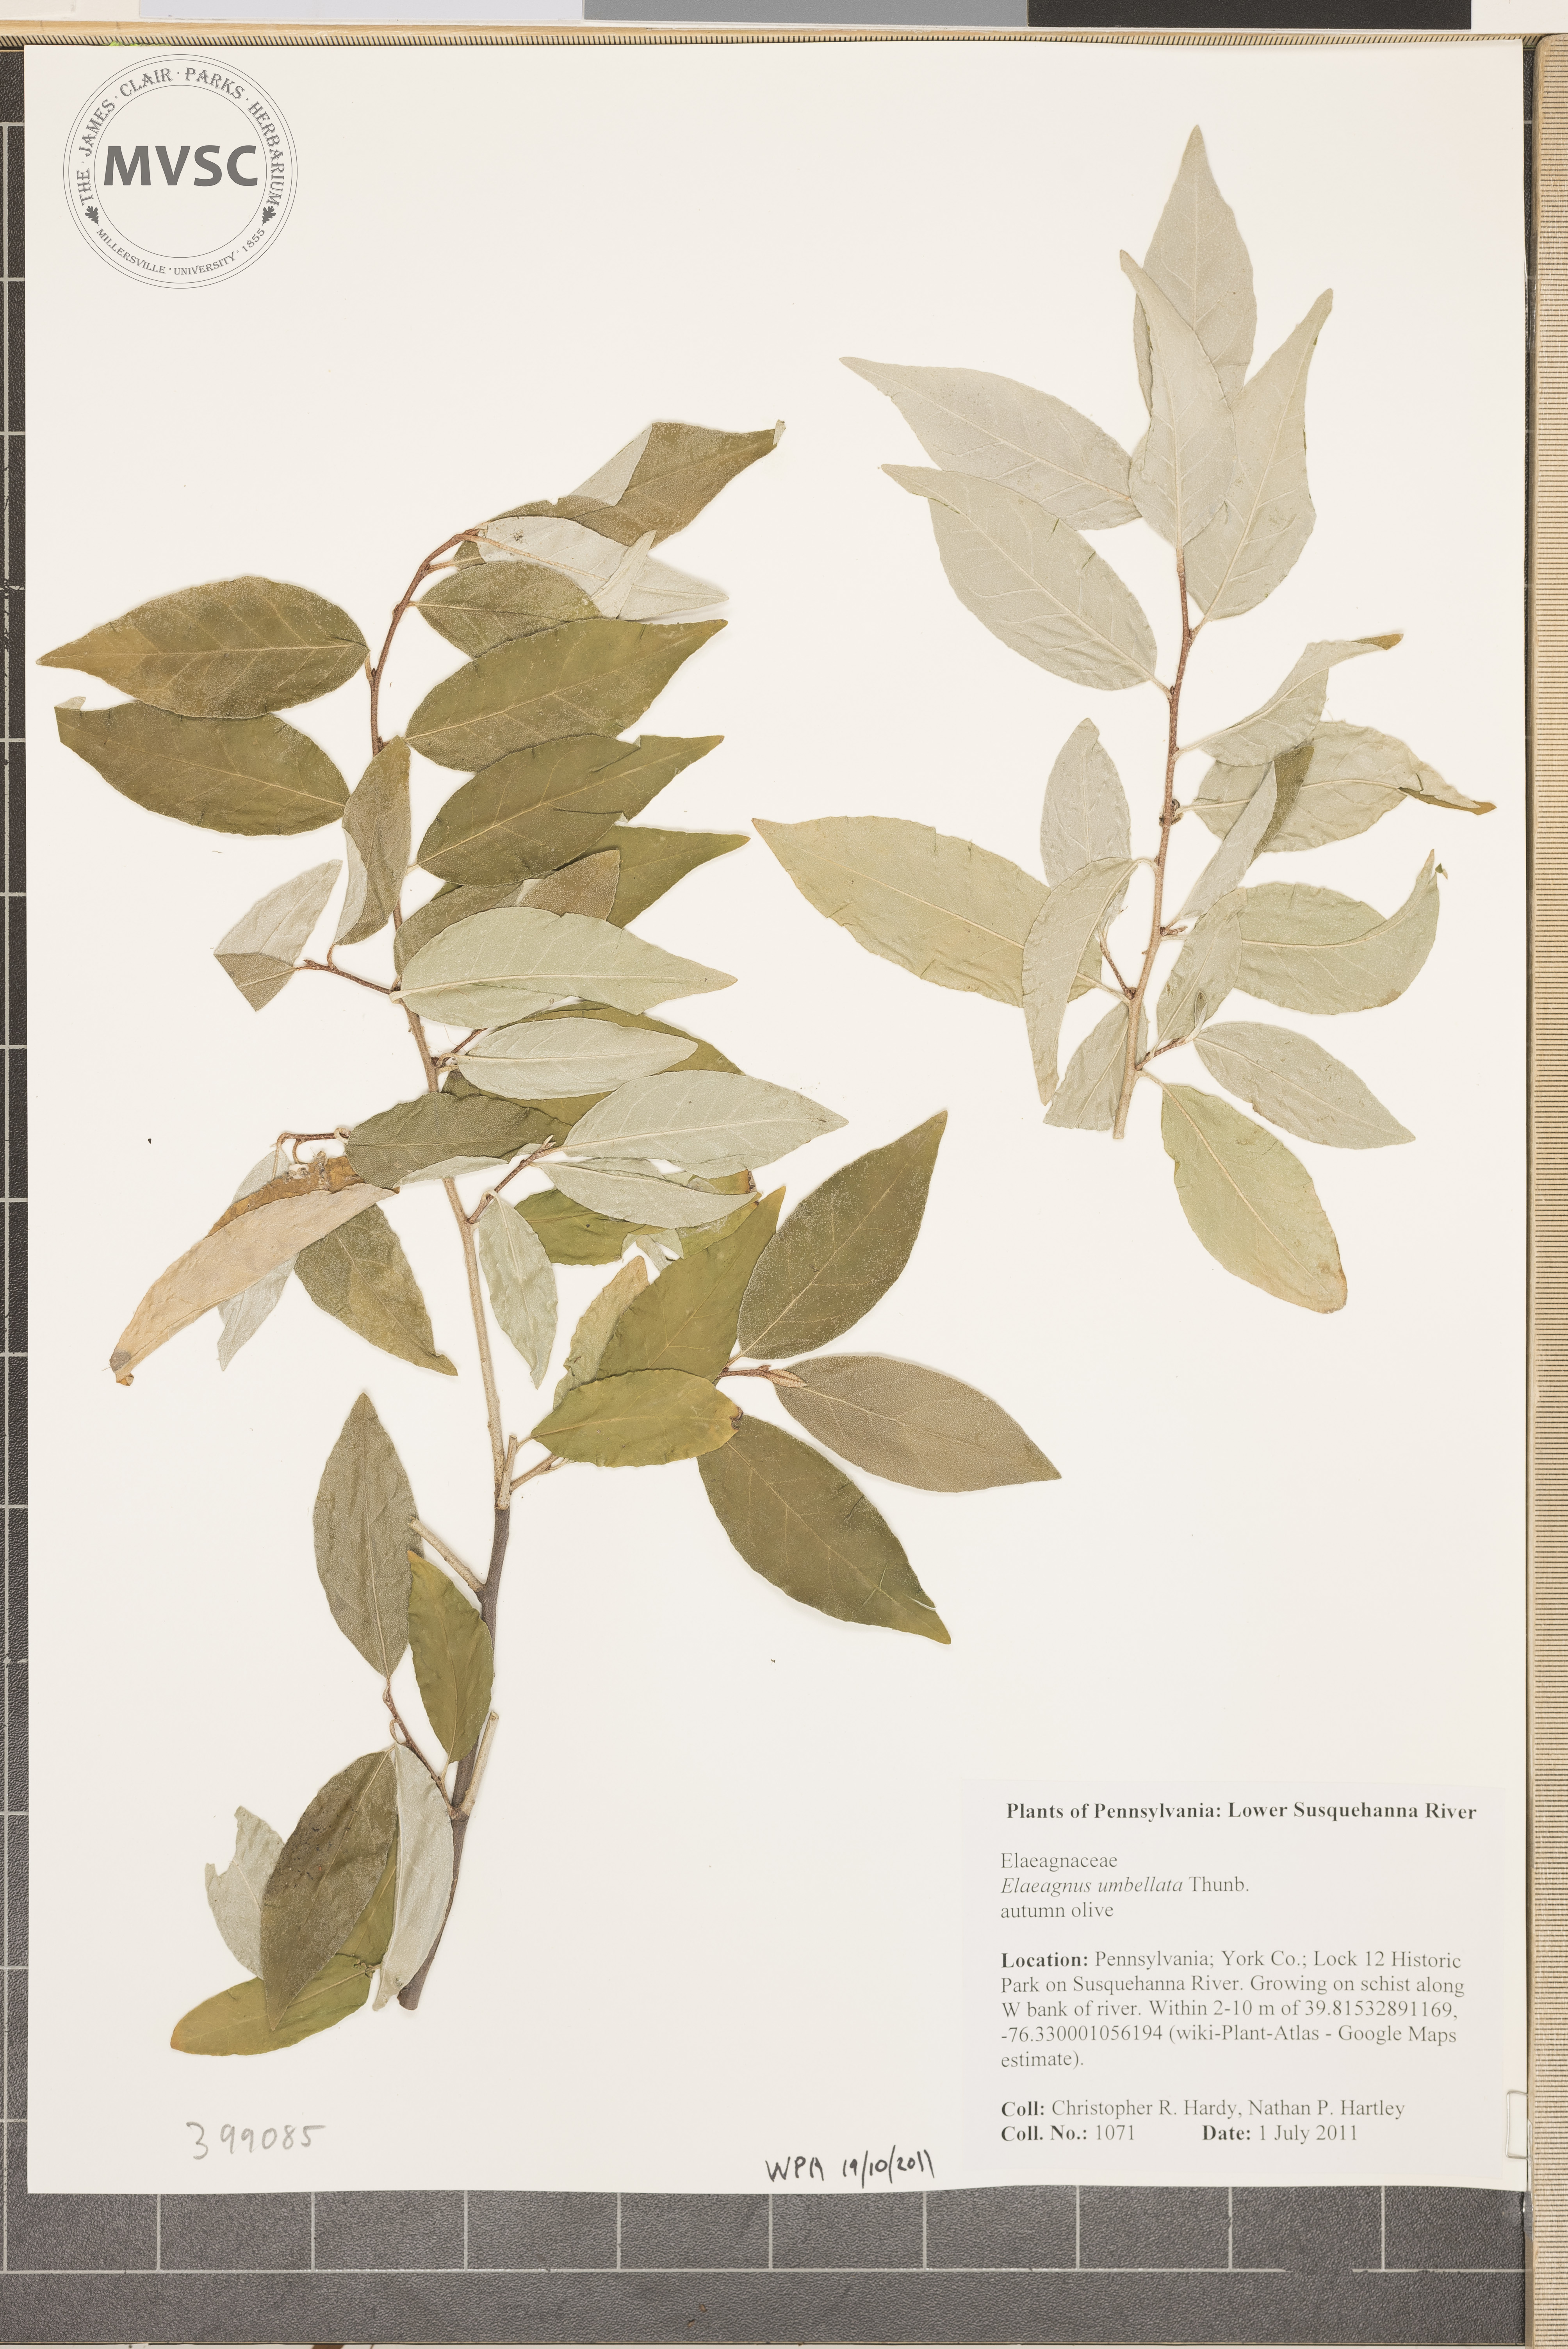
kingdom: Plantae
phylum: Tracheophyta
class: Magnoliopsida
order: Rosales
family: Elaeagnaceae
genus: Elaeagnus
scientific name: Elaeagnus umbellata
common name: Autumn-olive
